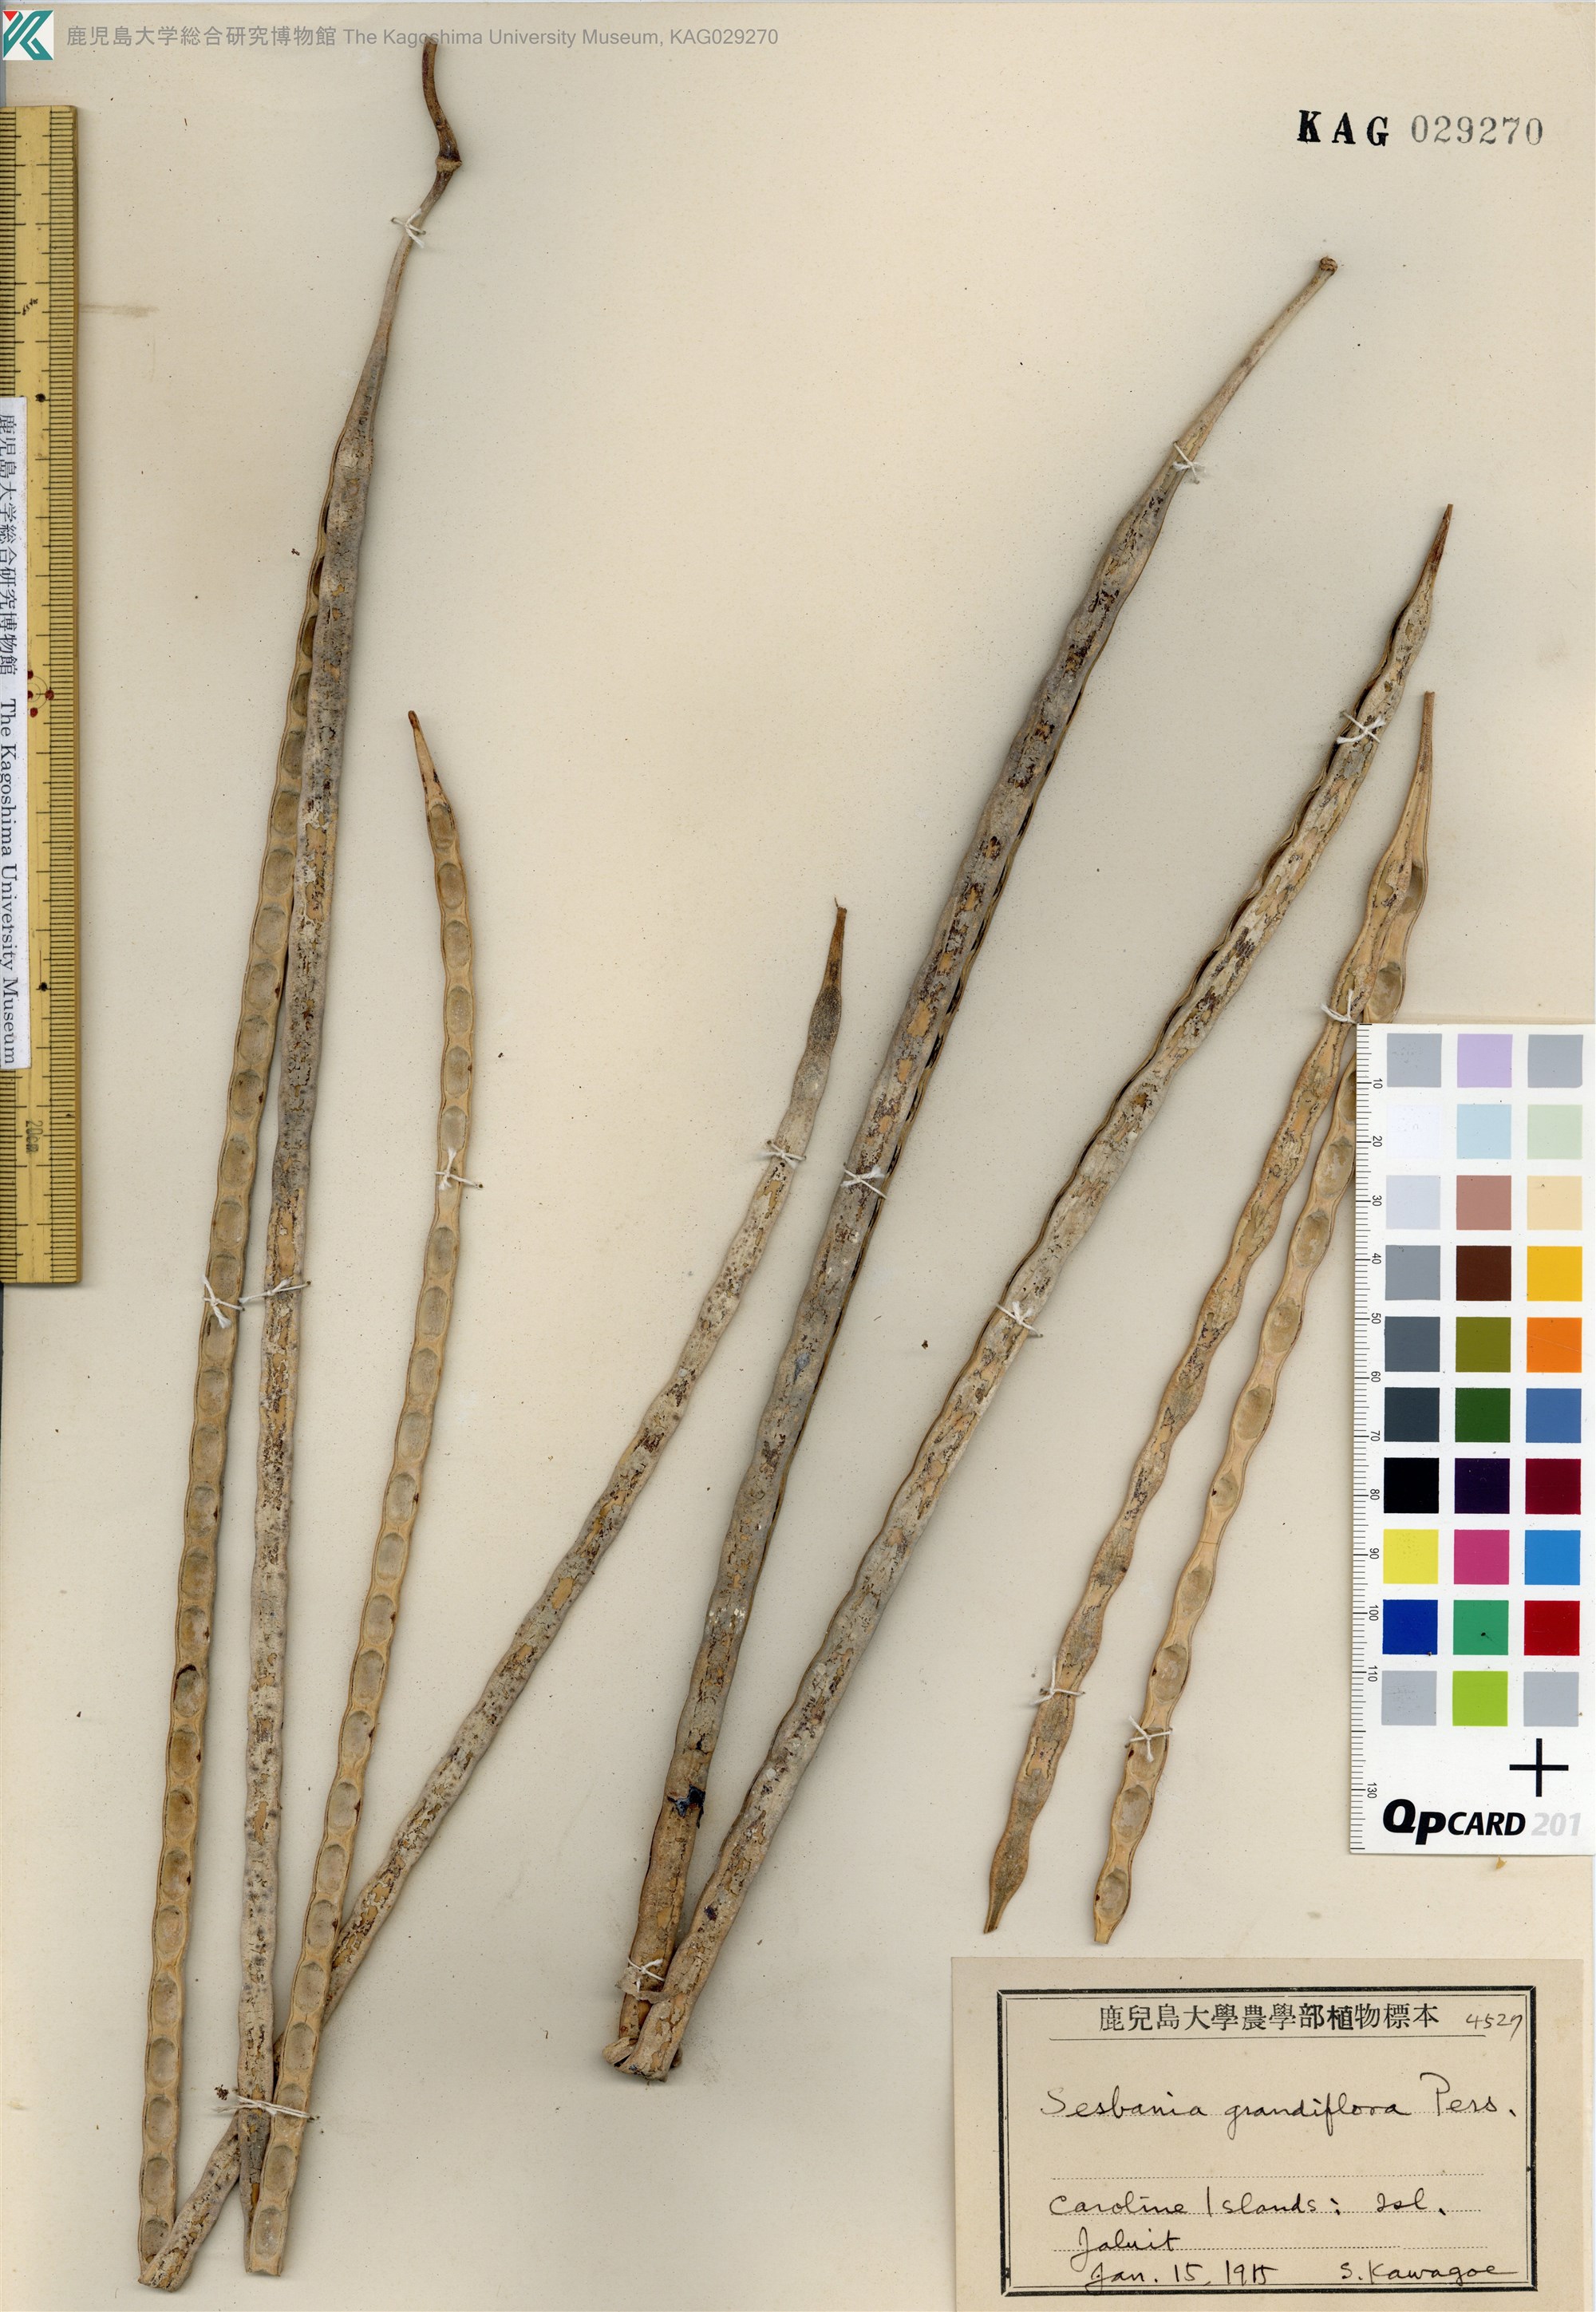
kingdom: Plantae
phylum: Tracheophyta
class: Magnoliopsida
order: Fabales
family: Fabaceae
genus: Sesbania
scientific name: Sesbania grandiflora
